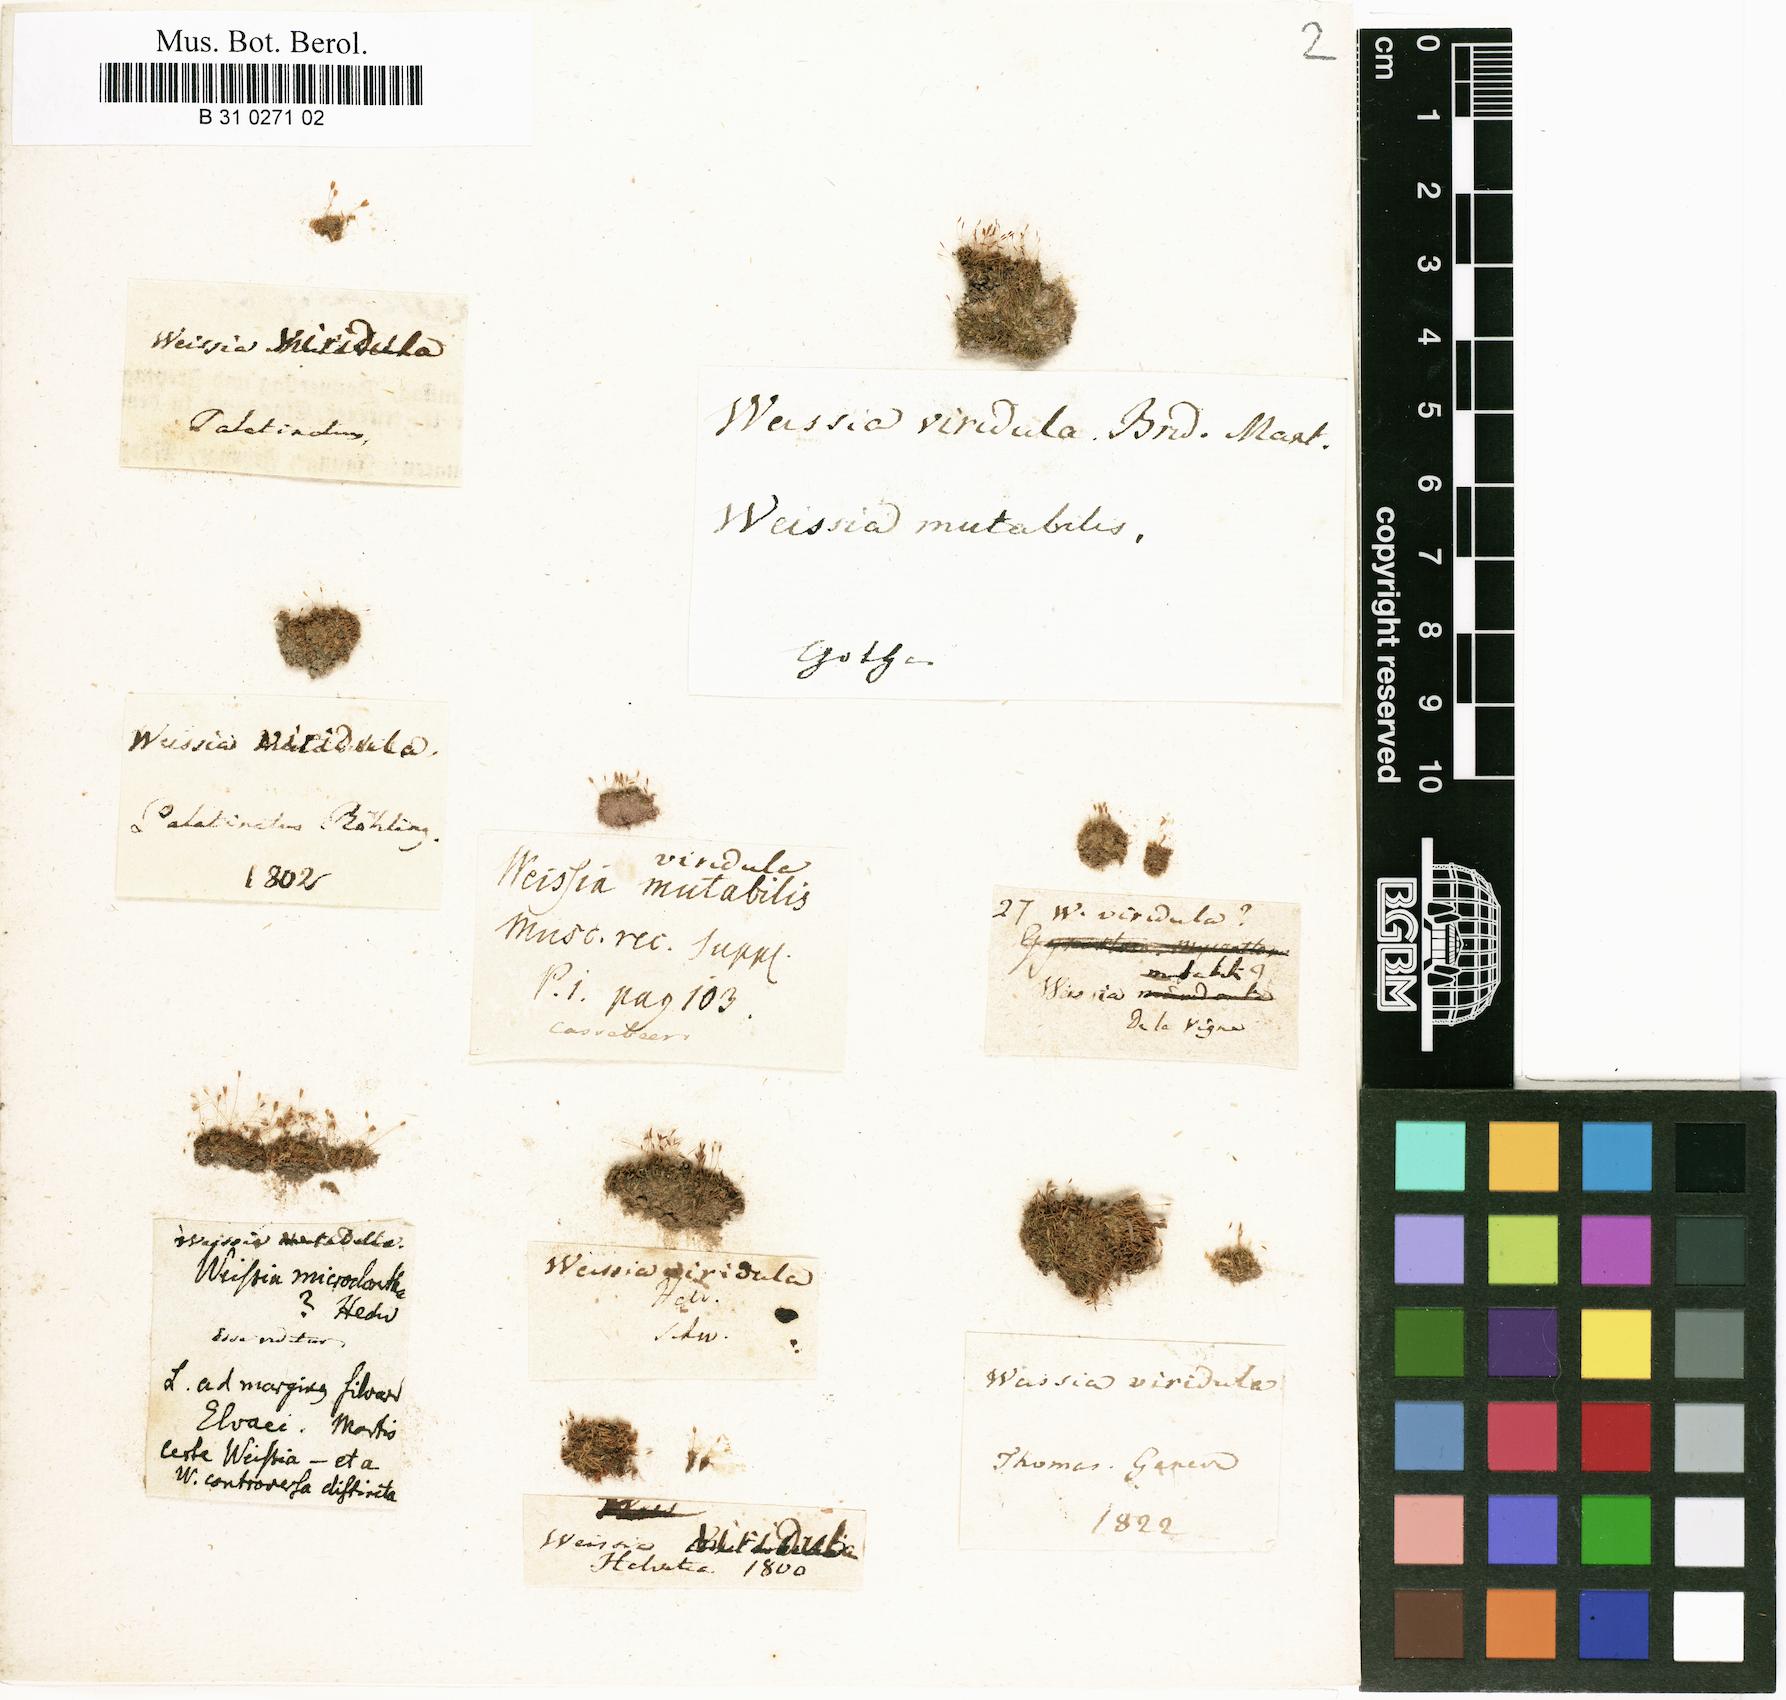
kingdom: Plantae
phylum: Bryophyta
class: Bryopsida
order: Pottiales
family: Pottiaceae
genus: Weissia
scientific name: Weissia controversa
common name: Green-tufted stubble moss
